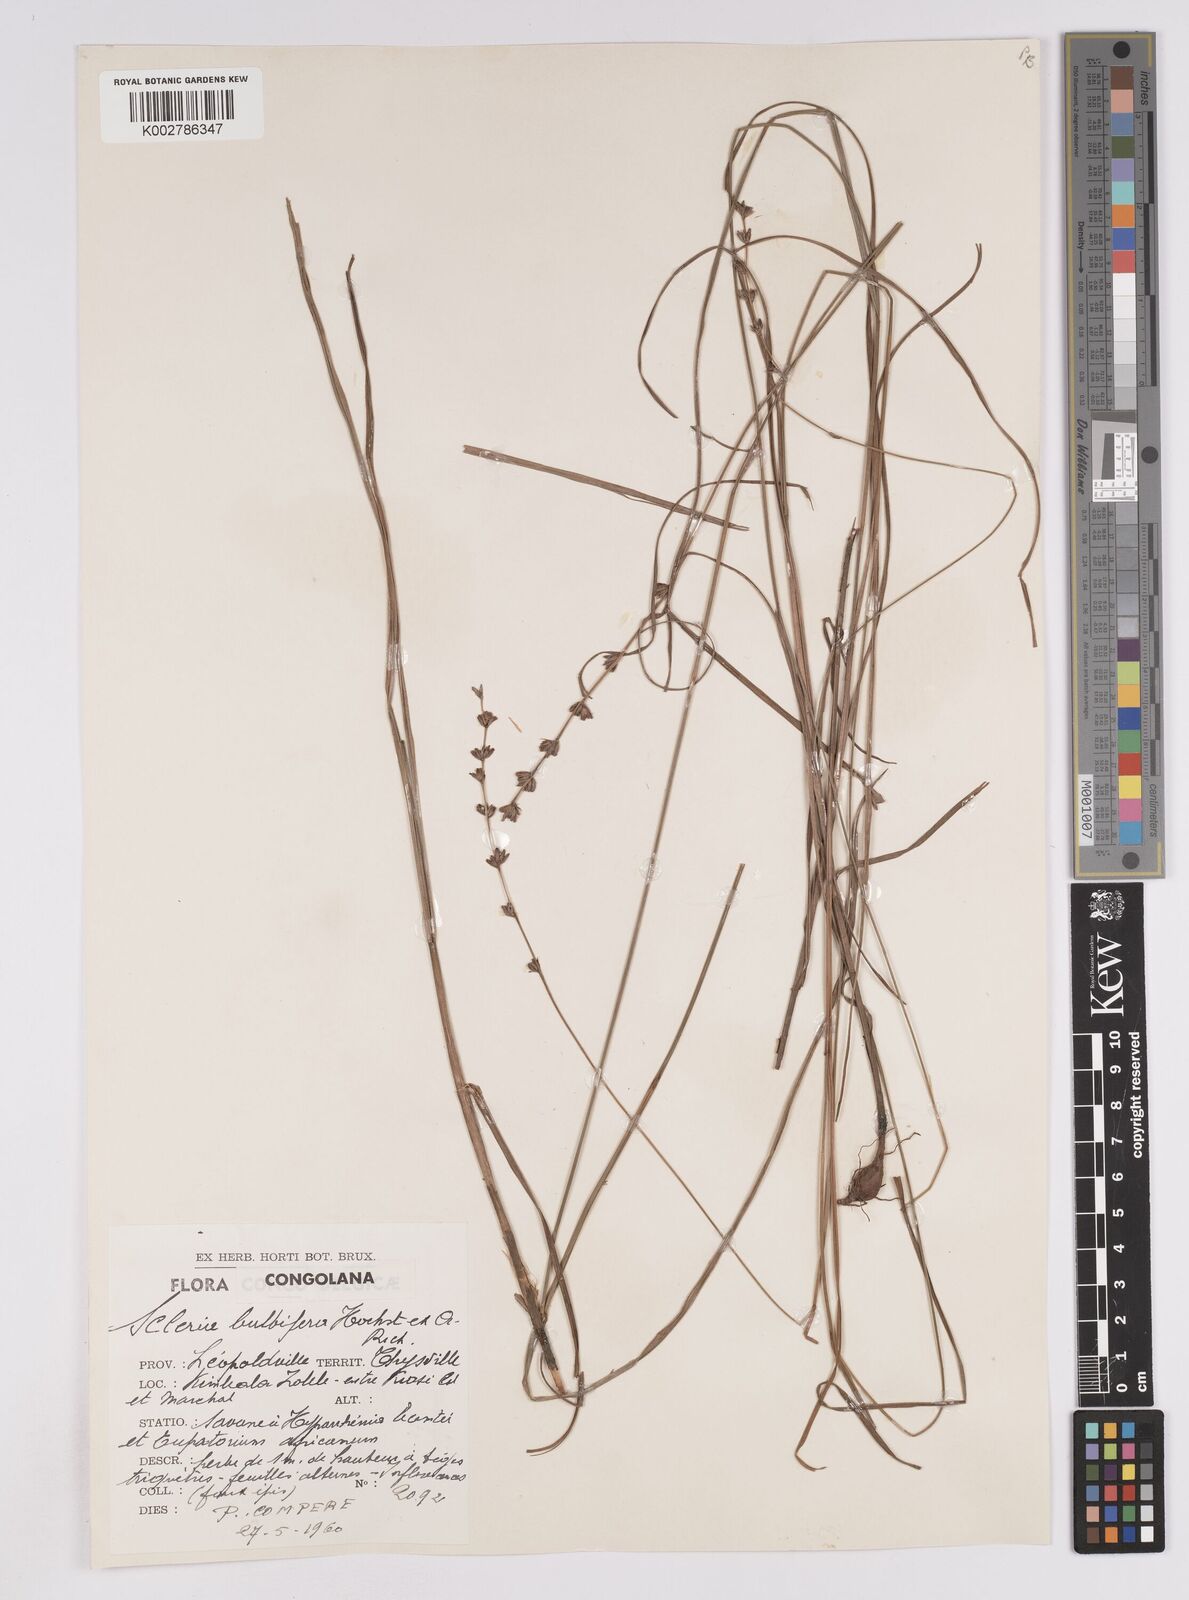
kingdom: Plantae
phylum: Tracheophyta
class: Liliopsida
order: Poales
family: Cyperaceae
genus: Scleria
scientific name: Scleria bulbifera
